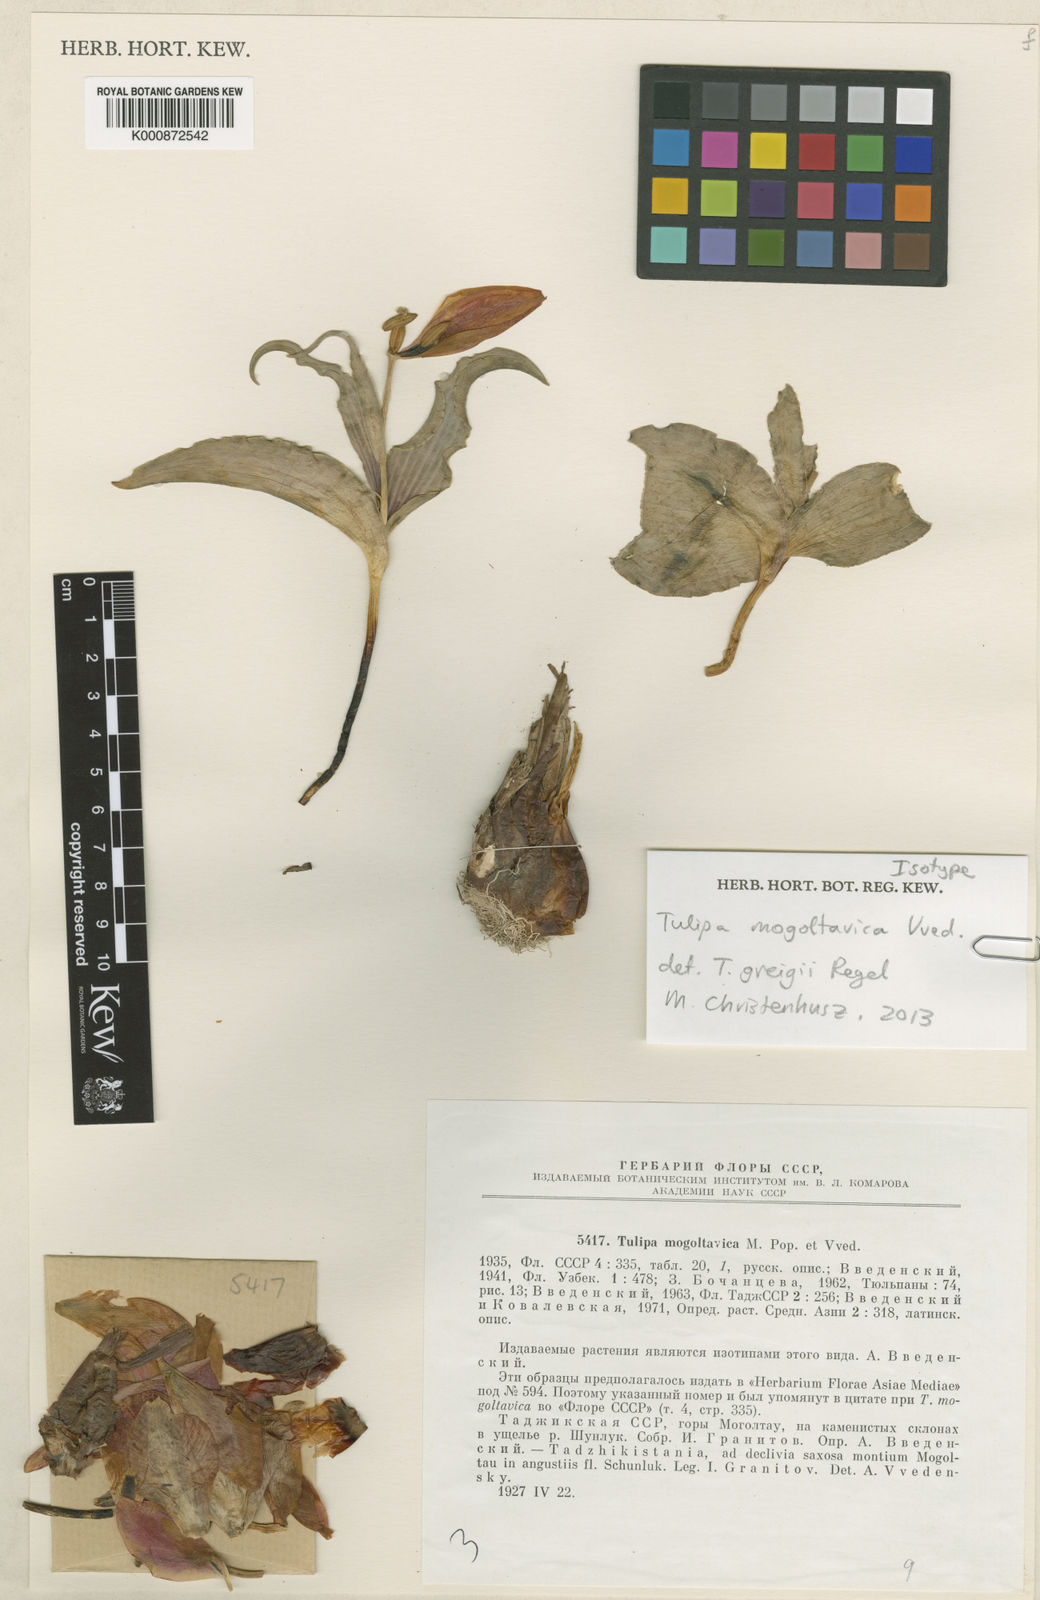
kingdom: Plantae
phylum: Tracheophyta
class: Liliopsida
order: Liliales
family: Liliaceae
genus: Tulipa
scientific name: Tulipa greigii
